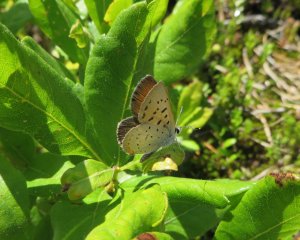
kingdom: Animalia
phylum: Arthropoda
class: Insecta
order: Lepidoptera
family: Sesiidae
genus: Sesia
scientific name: Sesia Lycaena epixanthe
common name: Bog Copper
